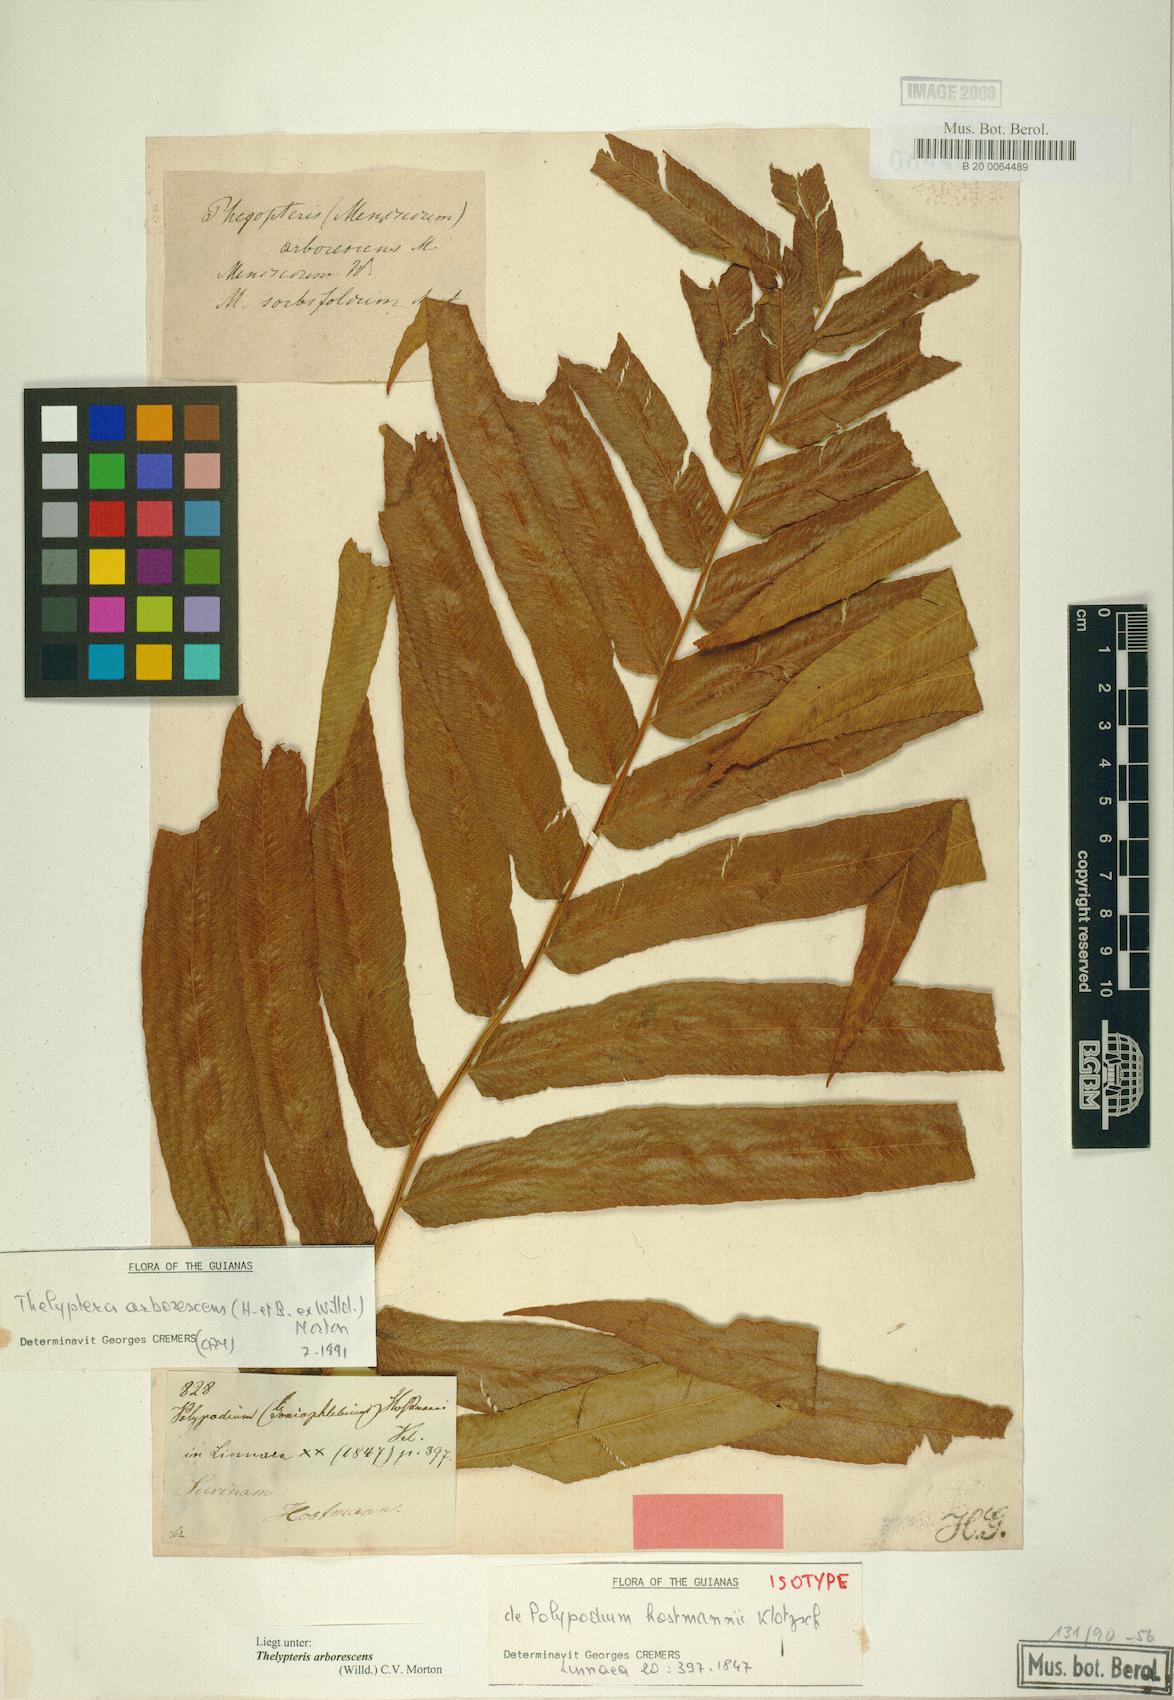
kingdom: Plantae
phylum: Tracheophyta
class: Polypodiopsida
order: Polypodiales
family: Thelypteridaceae
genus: Meniscium
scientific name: Meniscium arborescens
